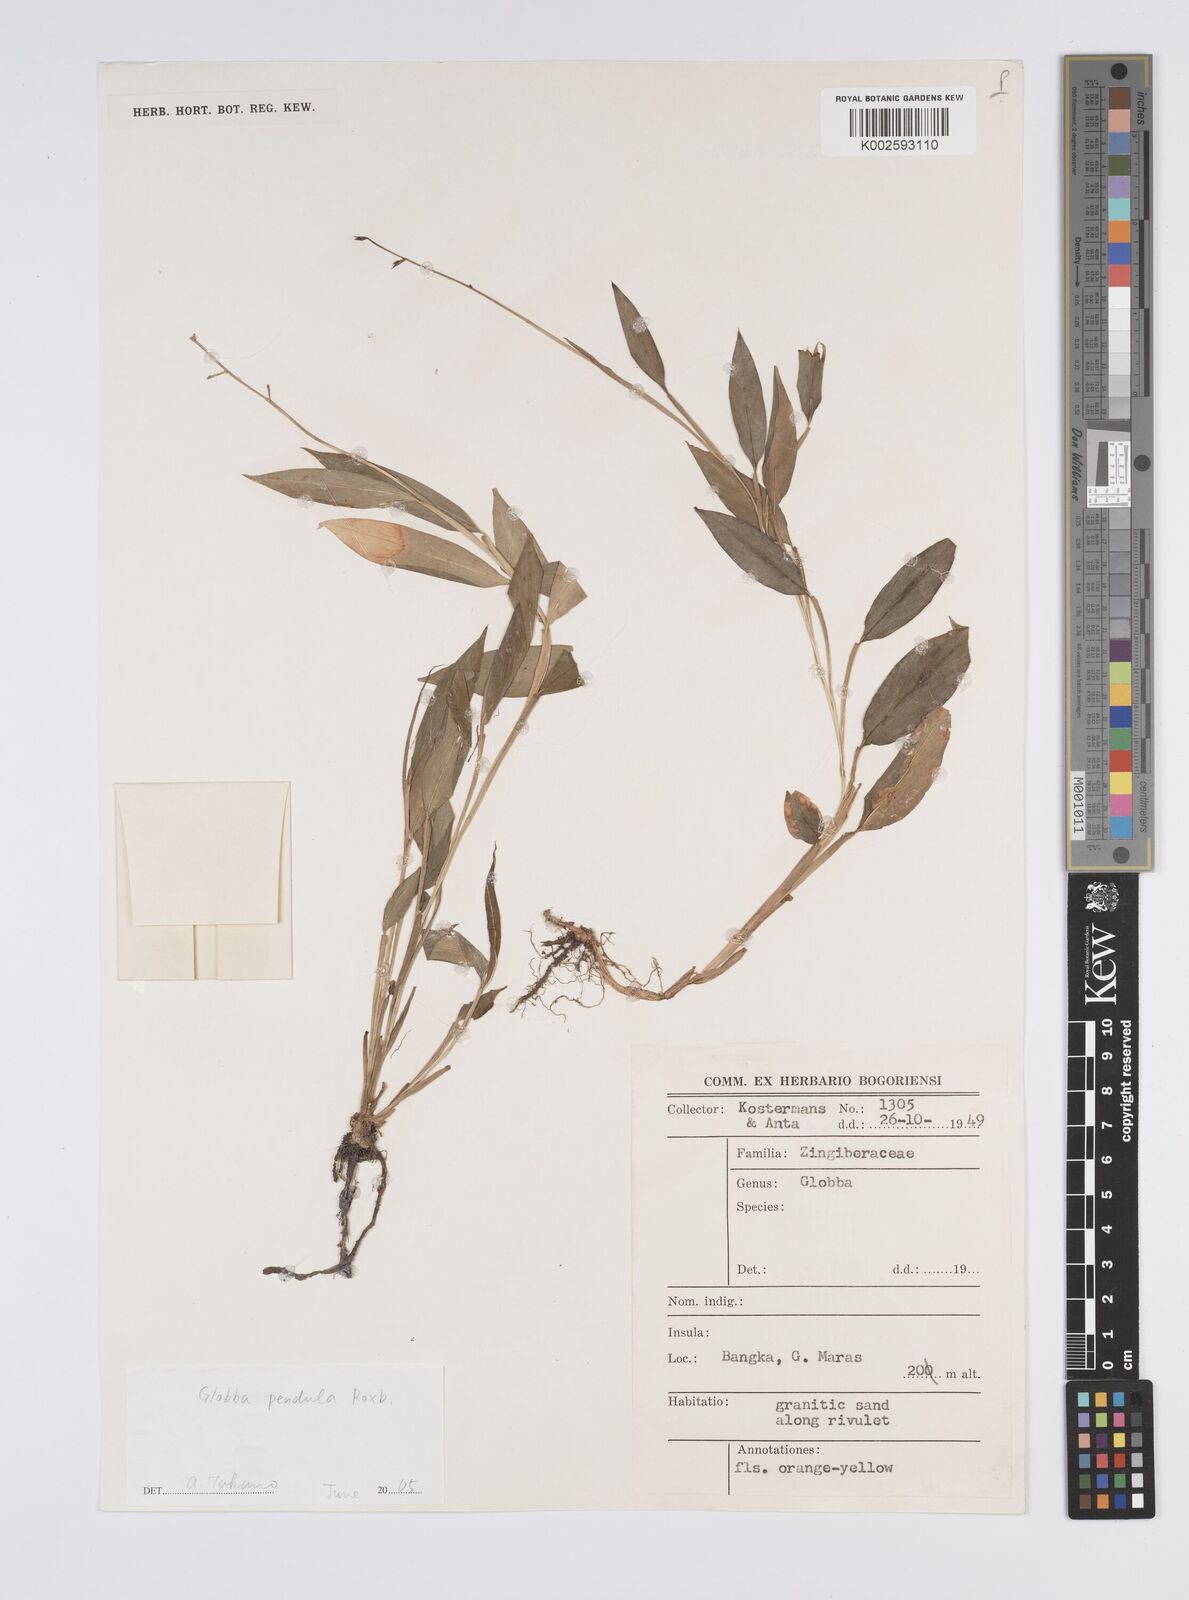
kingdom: Plantae
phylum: Tracheophyta
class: Liliopsida
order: Zingiberales
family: Zingiberaceae
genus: Globba
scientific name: Globba pendula
